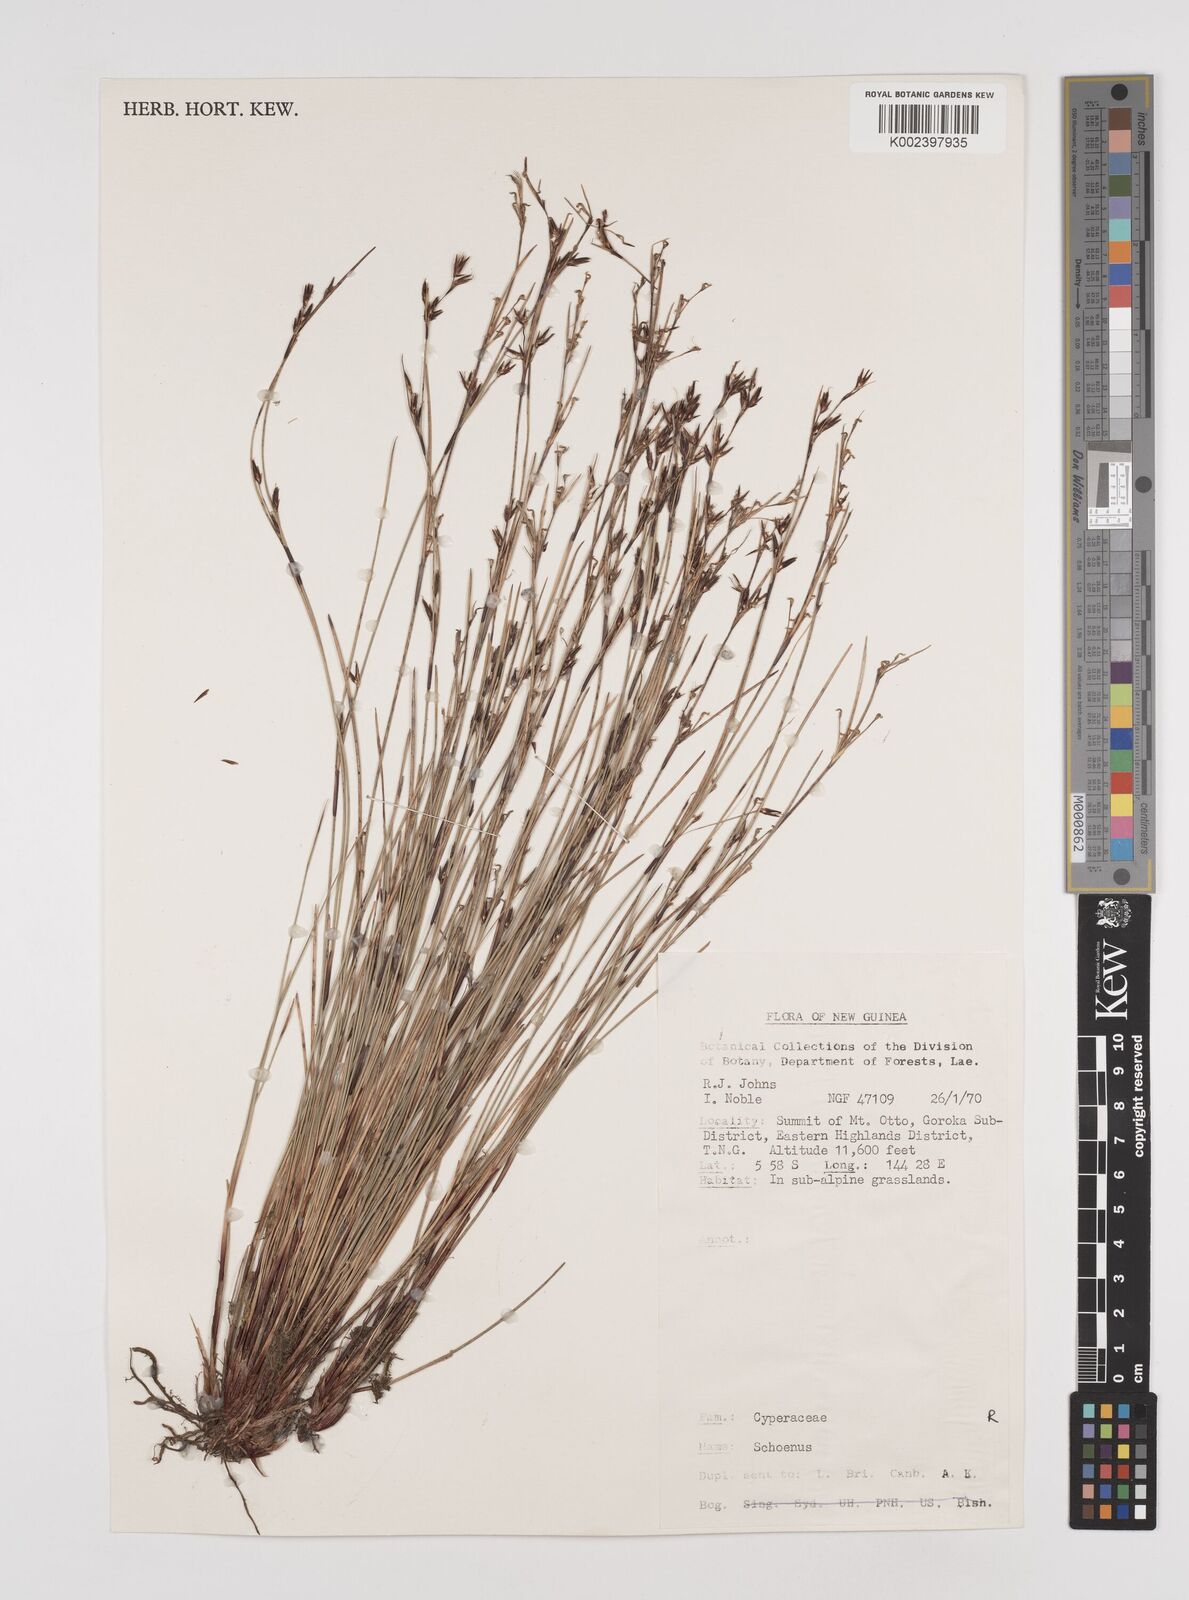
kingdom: Plantae
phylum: Tracheophyta
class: Liliopsida
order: Poales
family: Cyperaceae
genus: Schoenus
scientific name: Schoenus
